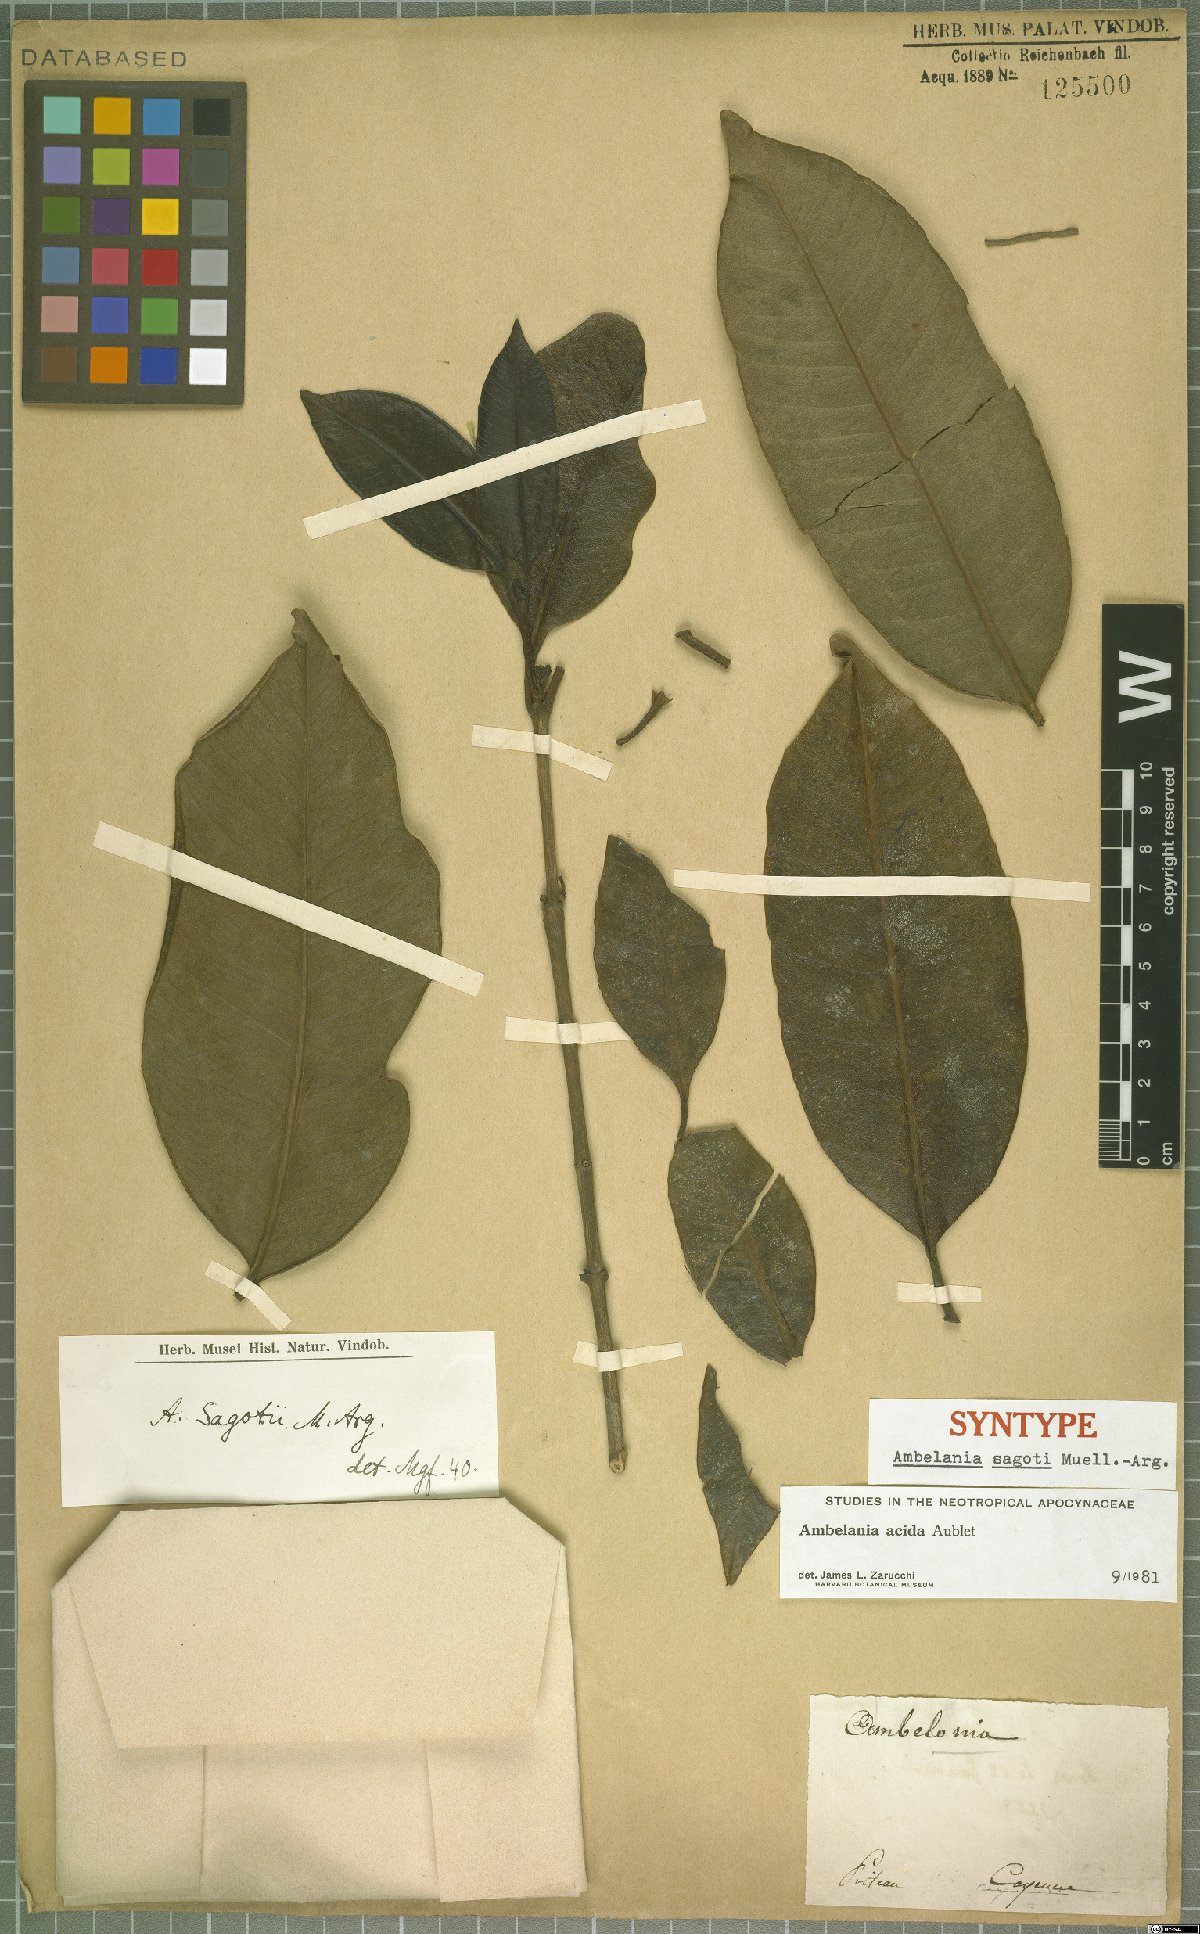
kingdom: Plantae
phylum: Tracheophyta
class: Magnoliopsida
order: Gentianales
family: Apocynaceae
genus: Ambelania
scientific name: Ambelania acida
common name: Bagasse
